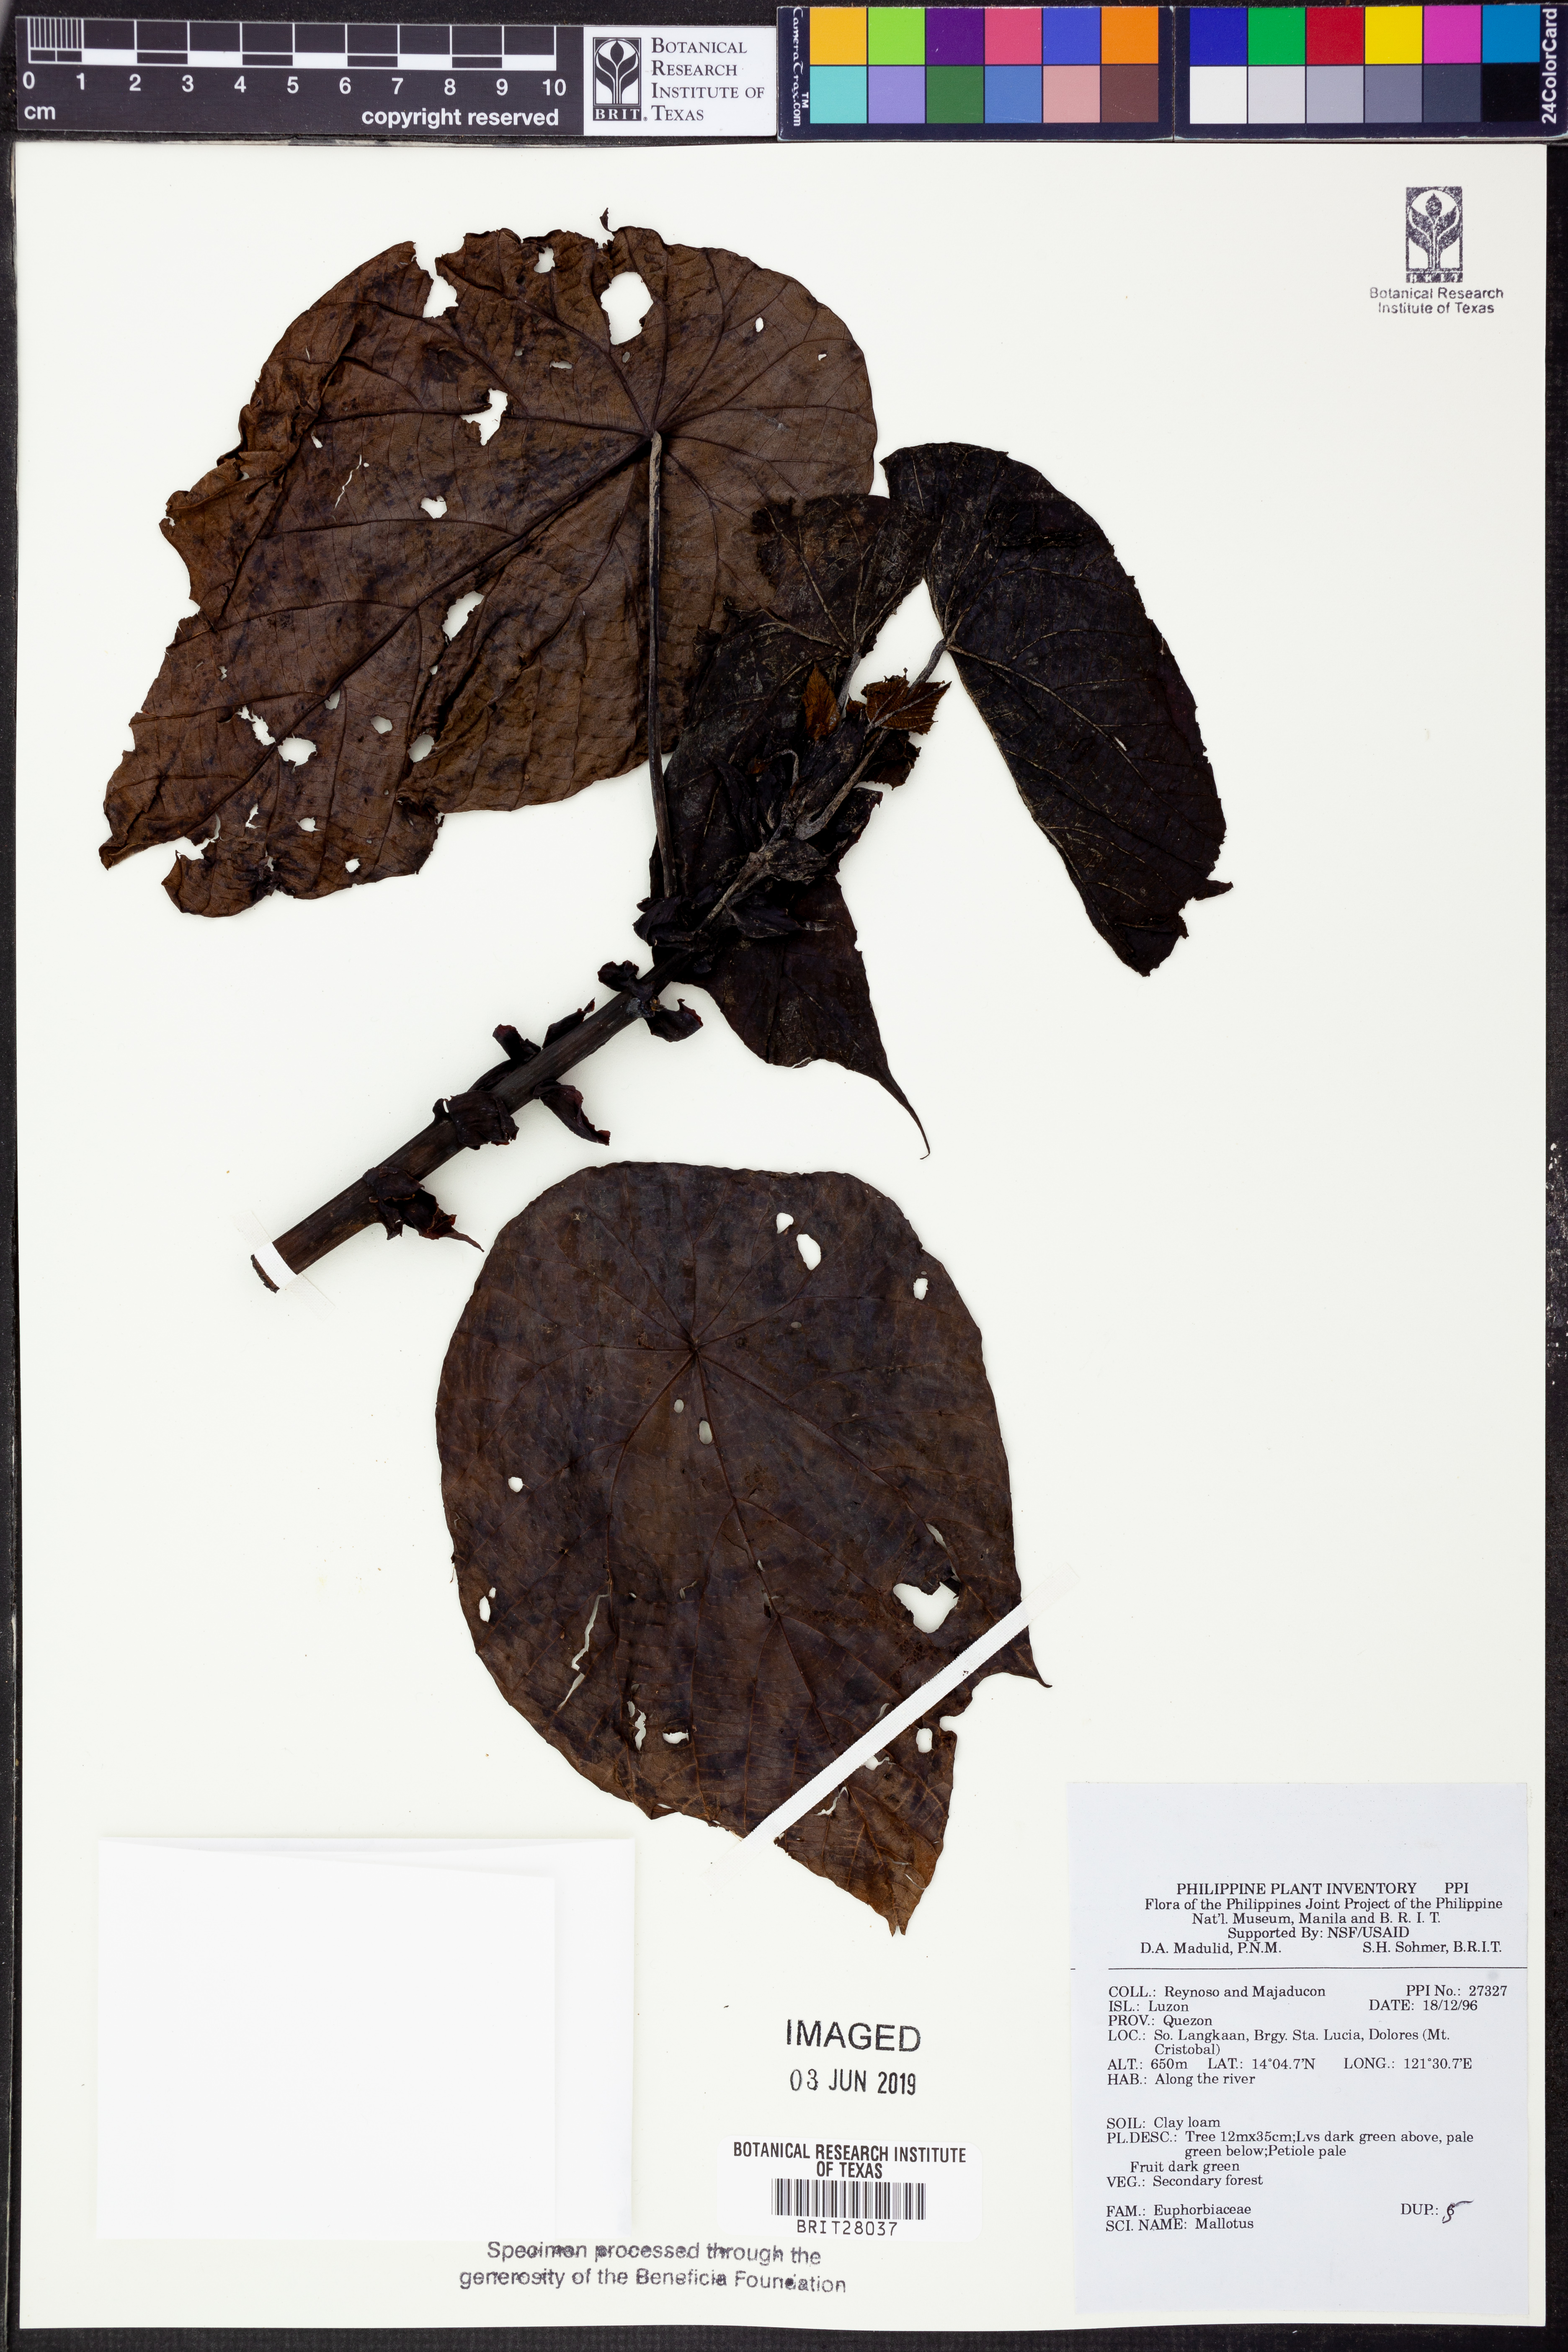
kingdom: Plantae
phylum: Tracheophyta
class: Magnoliopsida
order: Malpighiales
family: Euphorbiaceae
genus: Mallotus
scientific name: Mallotus
